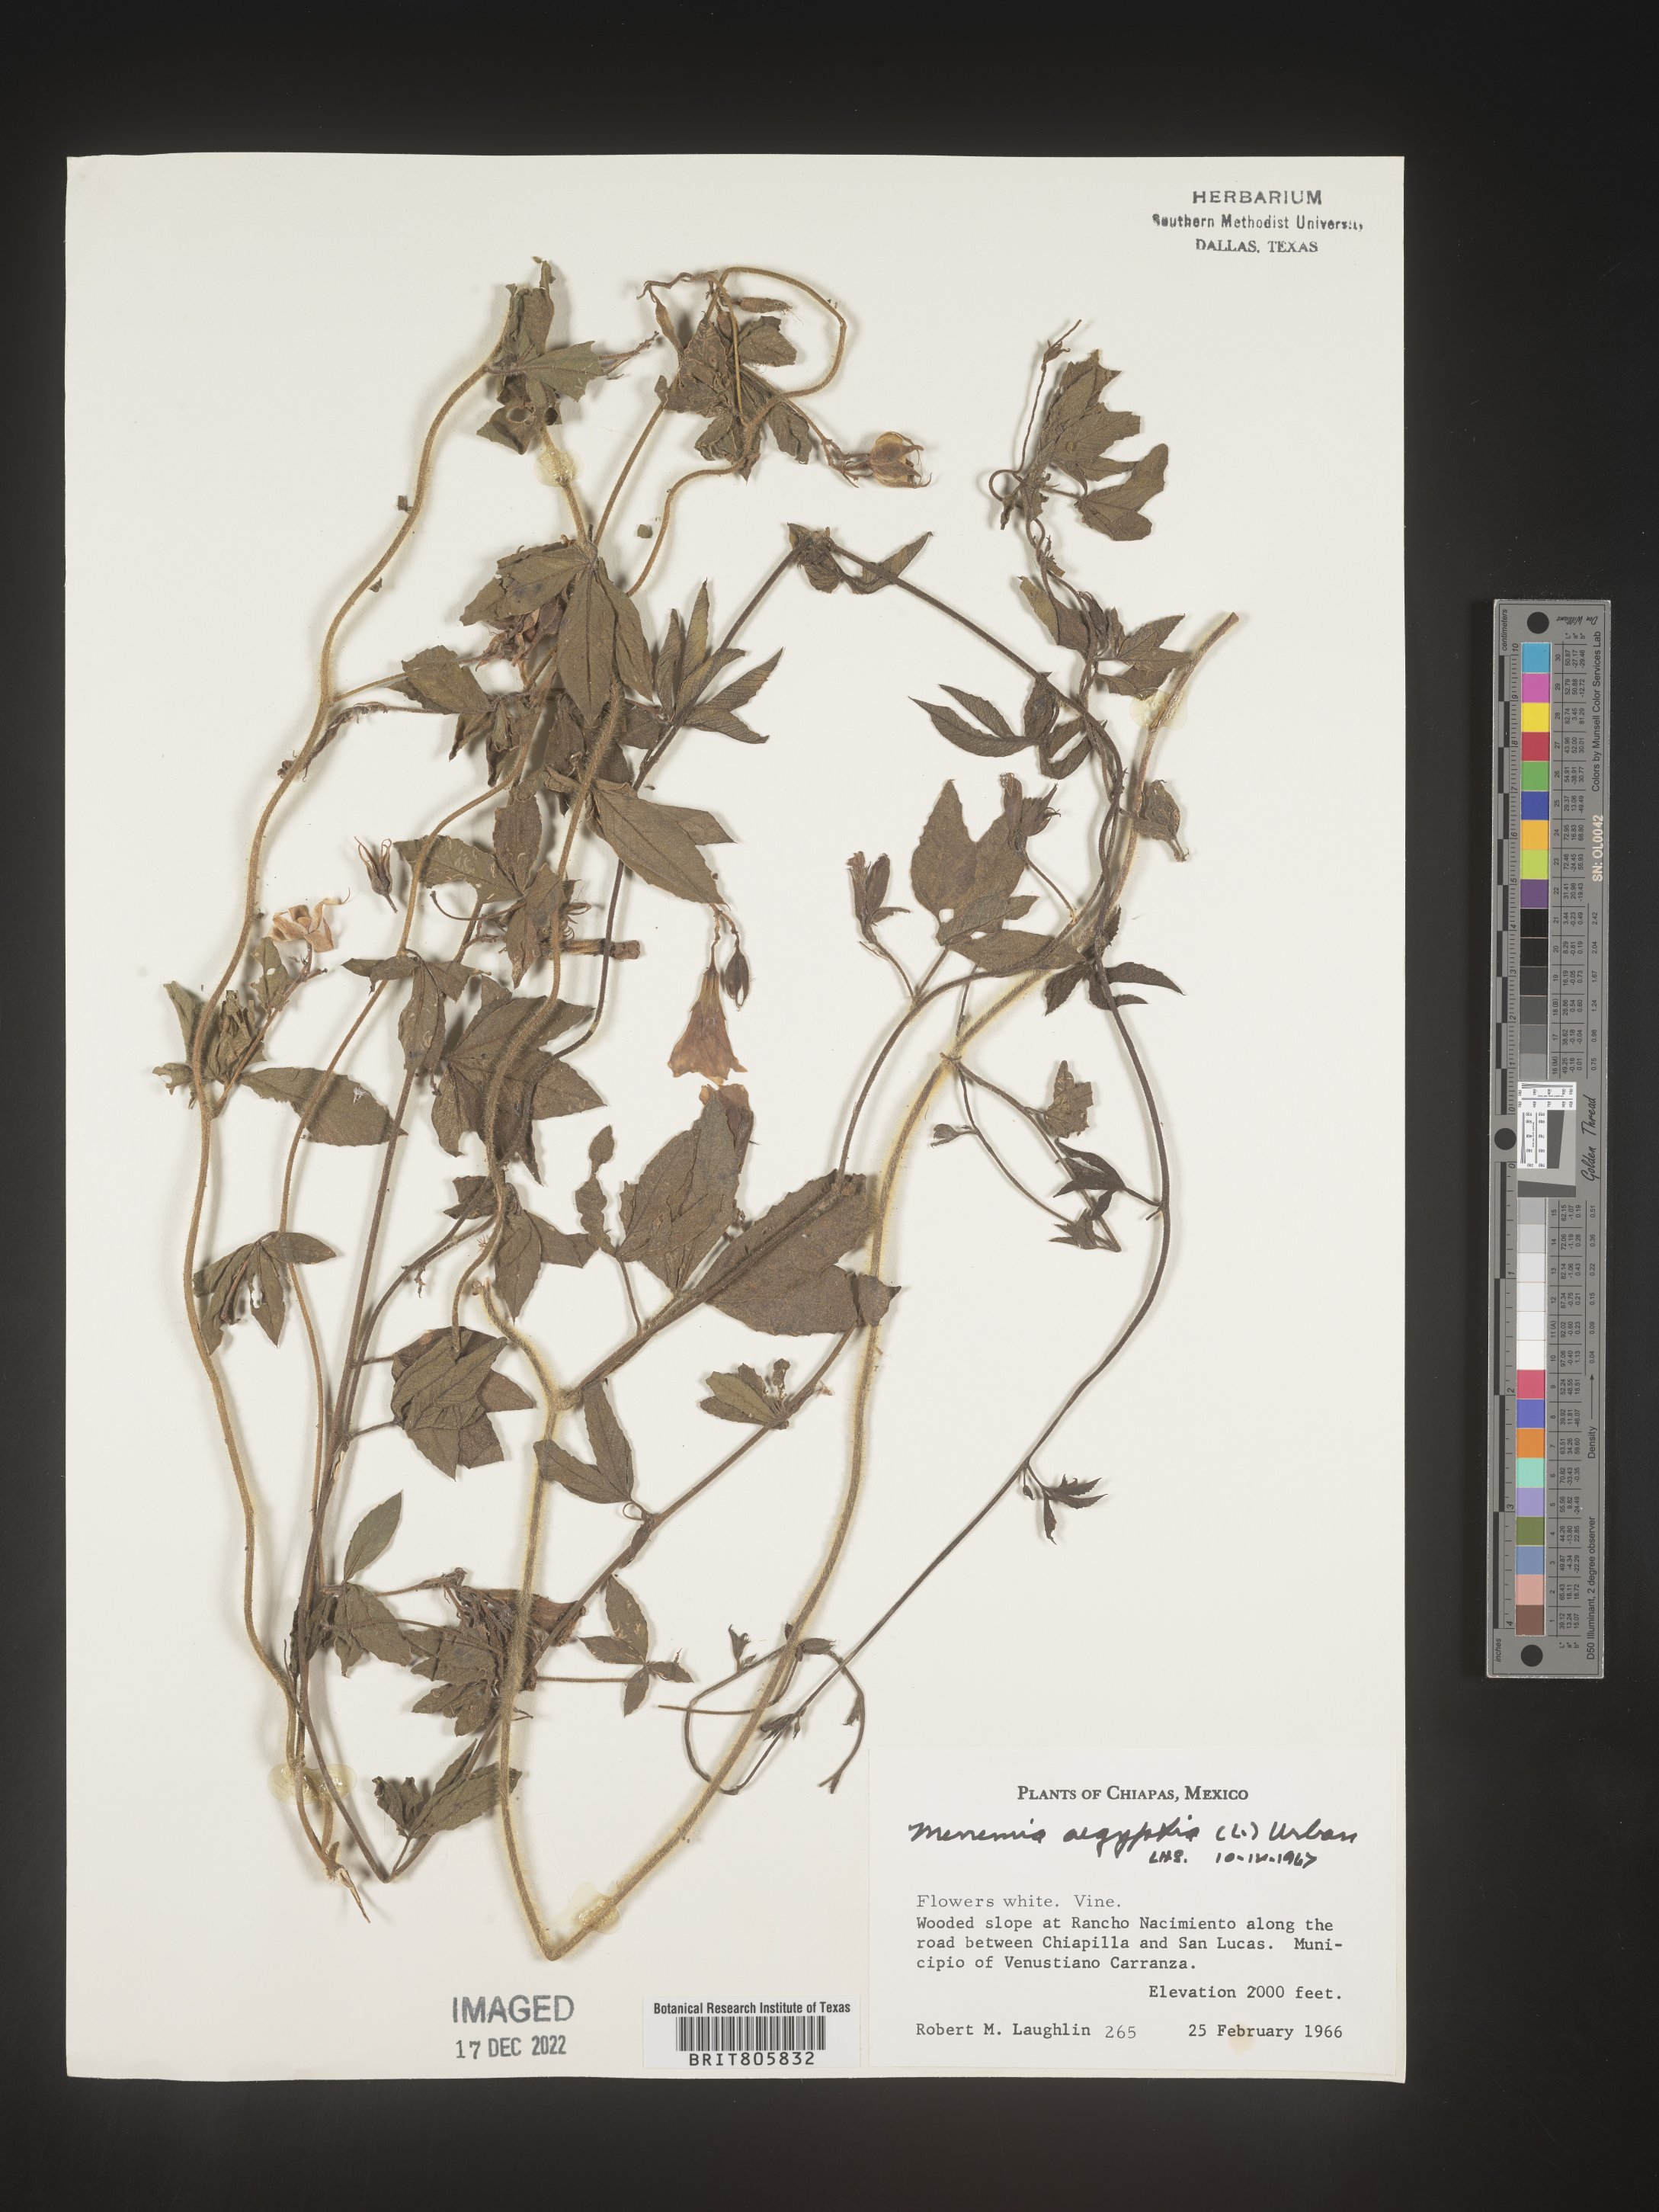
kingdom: Plantae
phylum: Tracheophyta
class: Magnoliopsida
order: Solanales
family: Convolvulaceae
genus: Merremia
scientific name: Merremia
